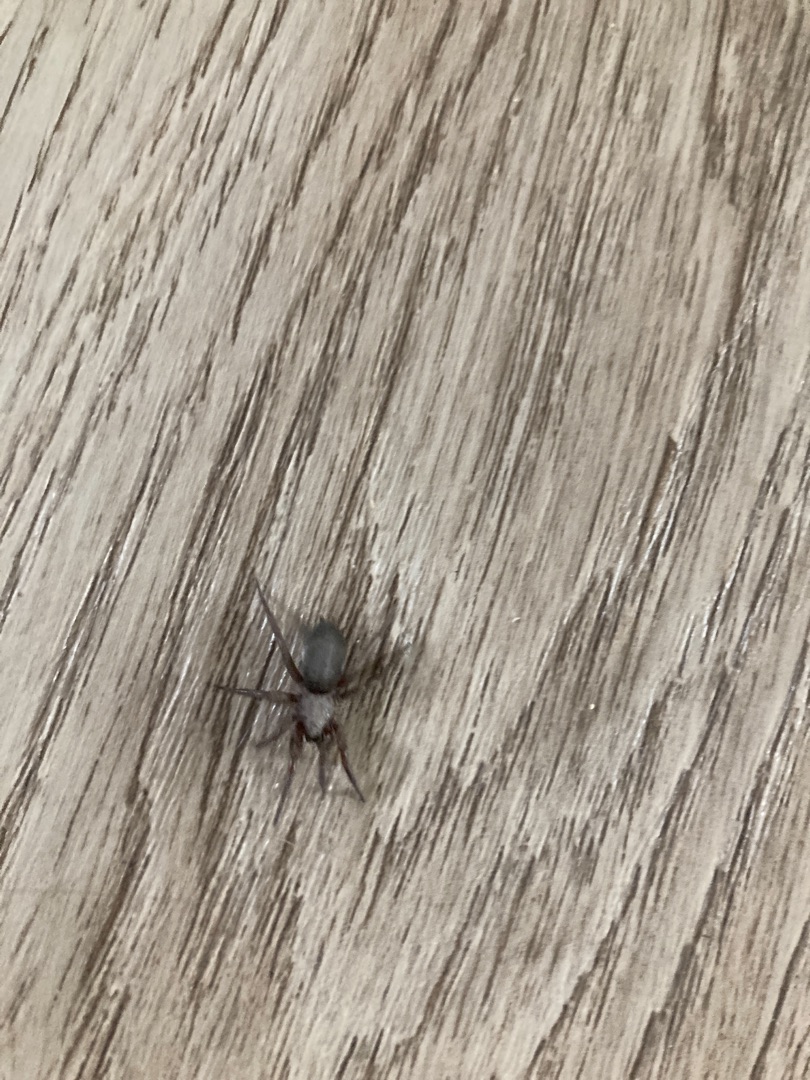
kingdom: Animalia
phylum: Arthropoda
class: Arachnida
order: Araneae
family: Gnaphosidae
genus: Scotophaeus
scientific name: Scotophaeus
